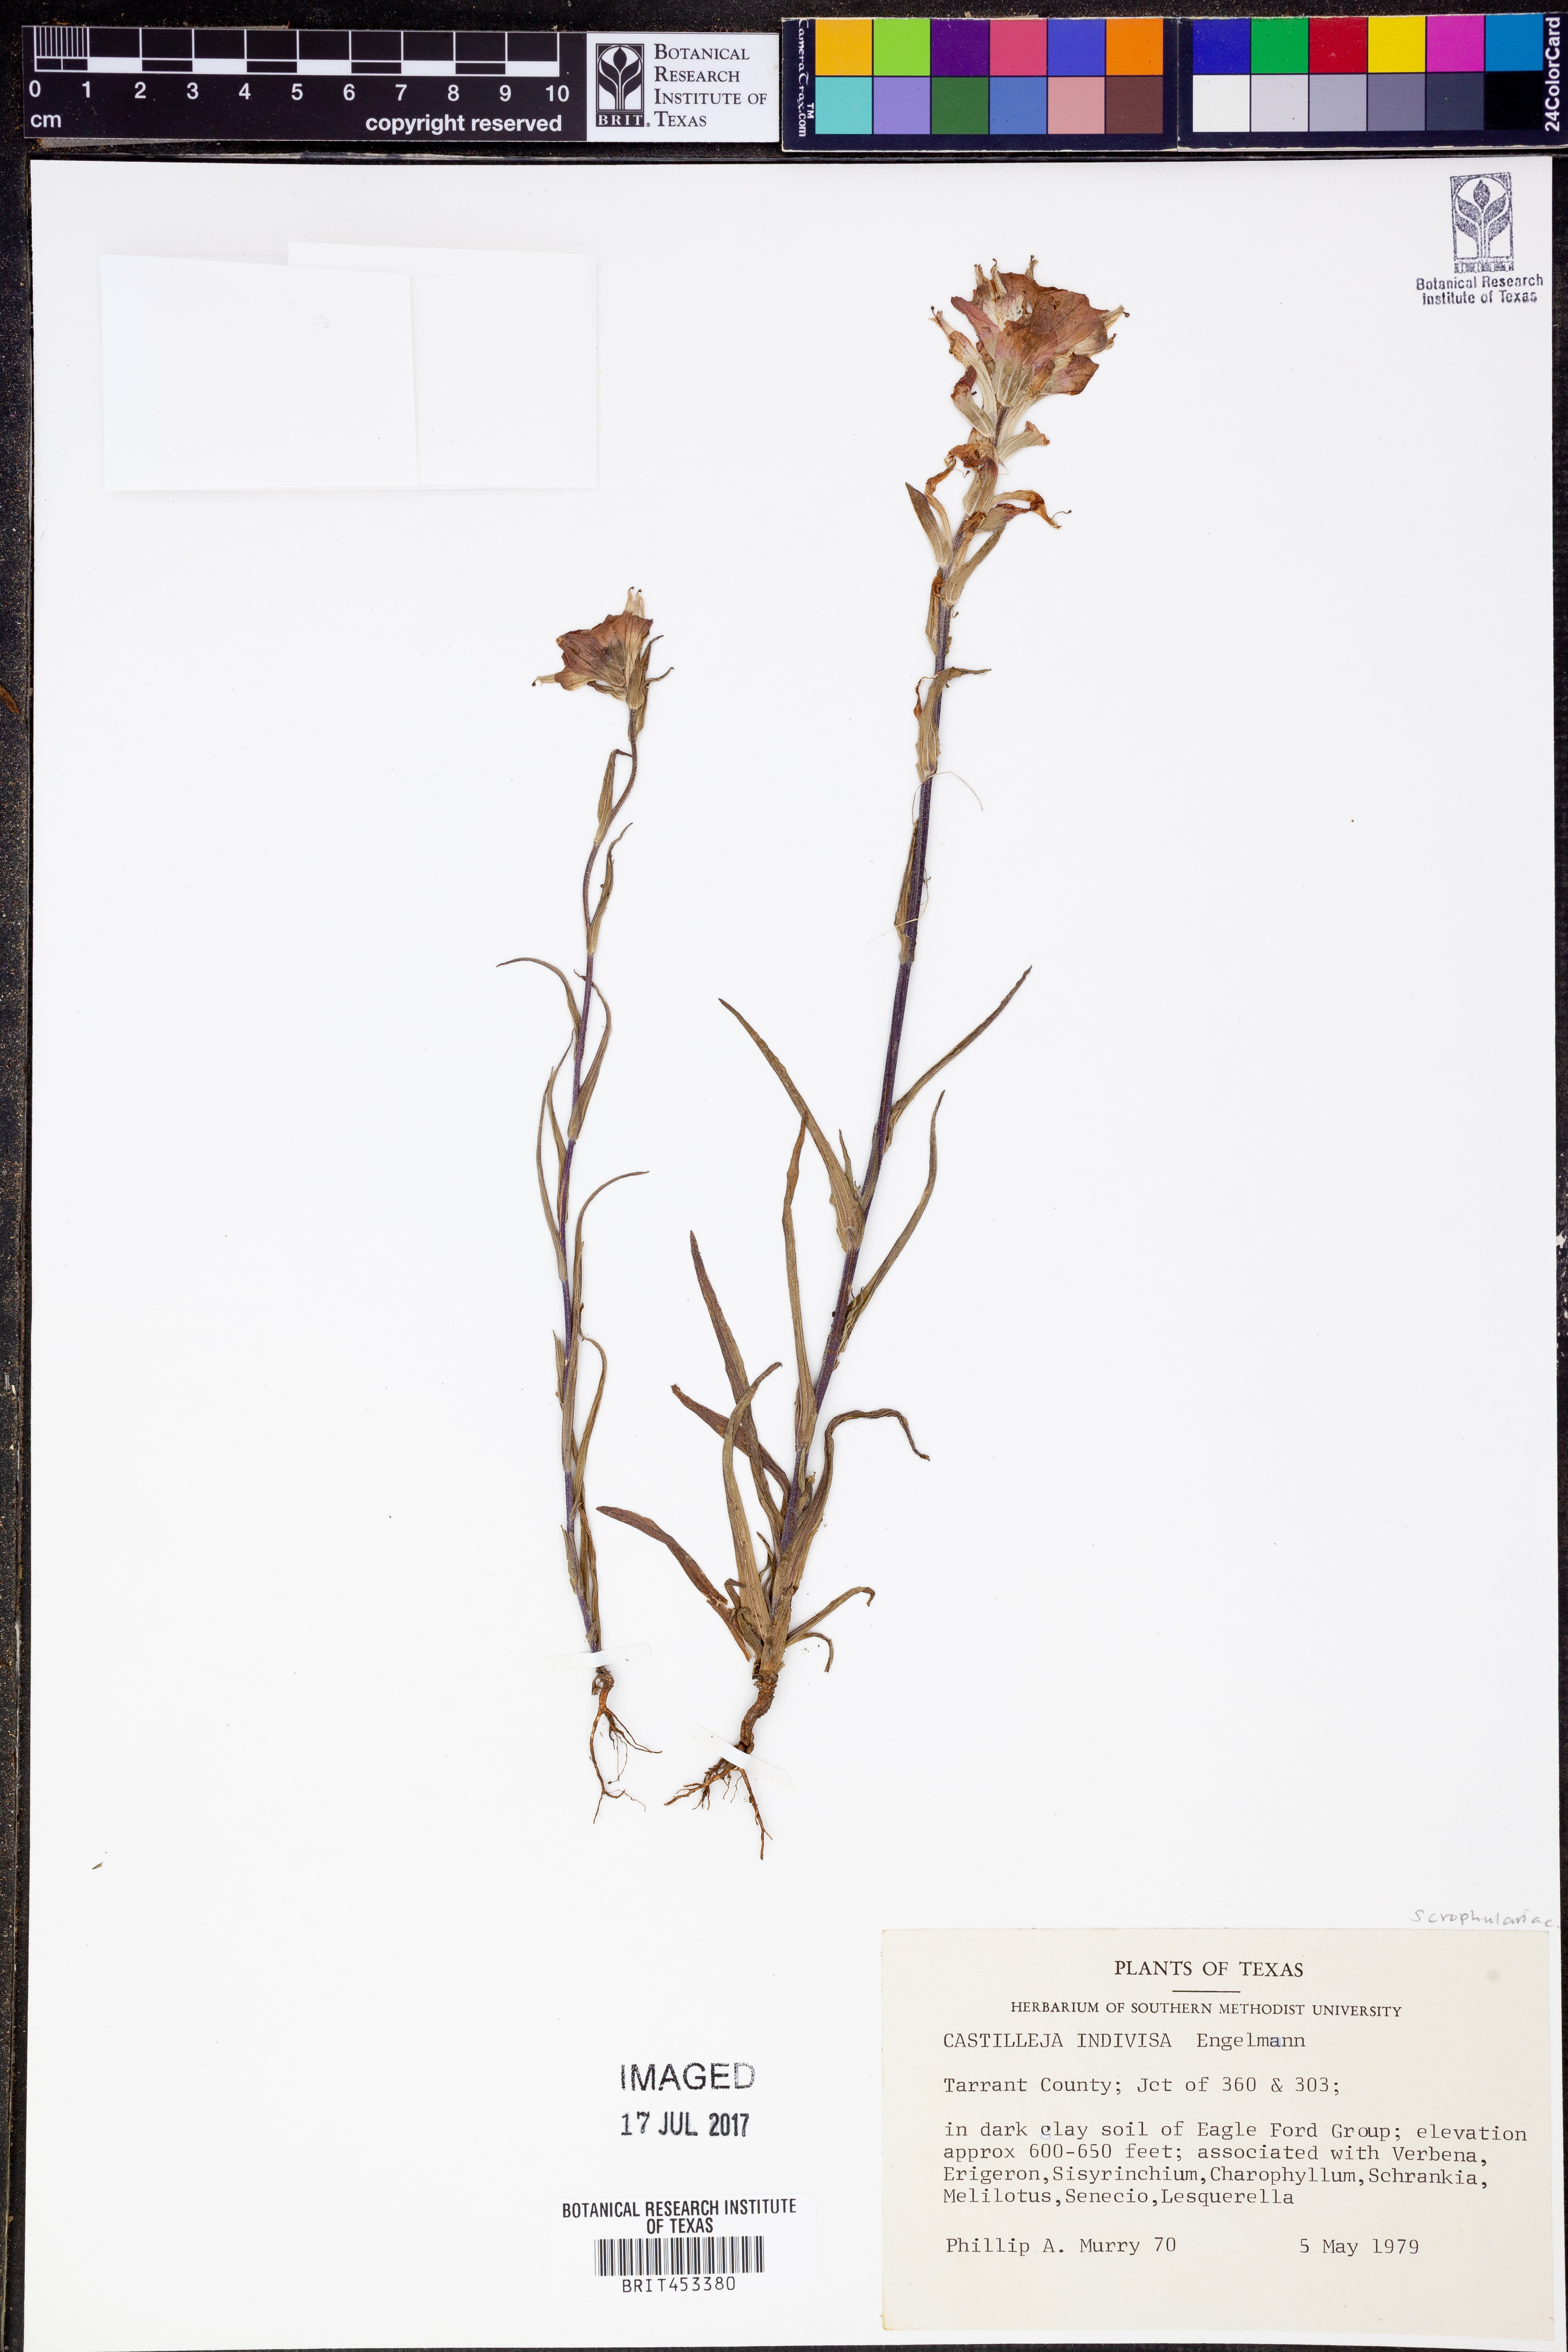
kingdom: Plantae
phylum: Tracheophyta
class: Magnoliopsida
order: Lamiales
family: Orobanchaceae
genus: Castilleja
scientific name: Castilleja indivisa
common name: Texas paintbrush
